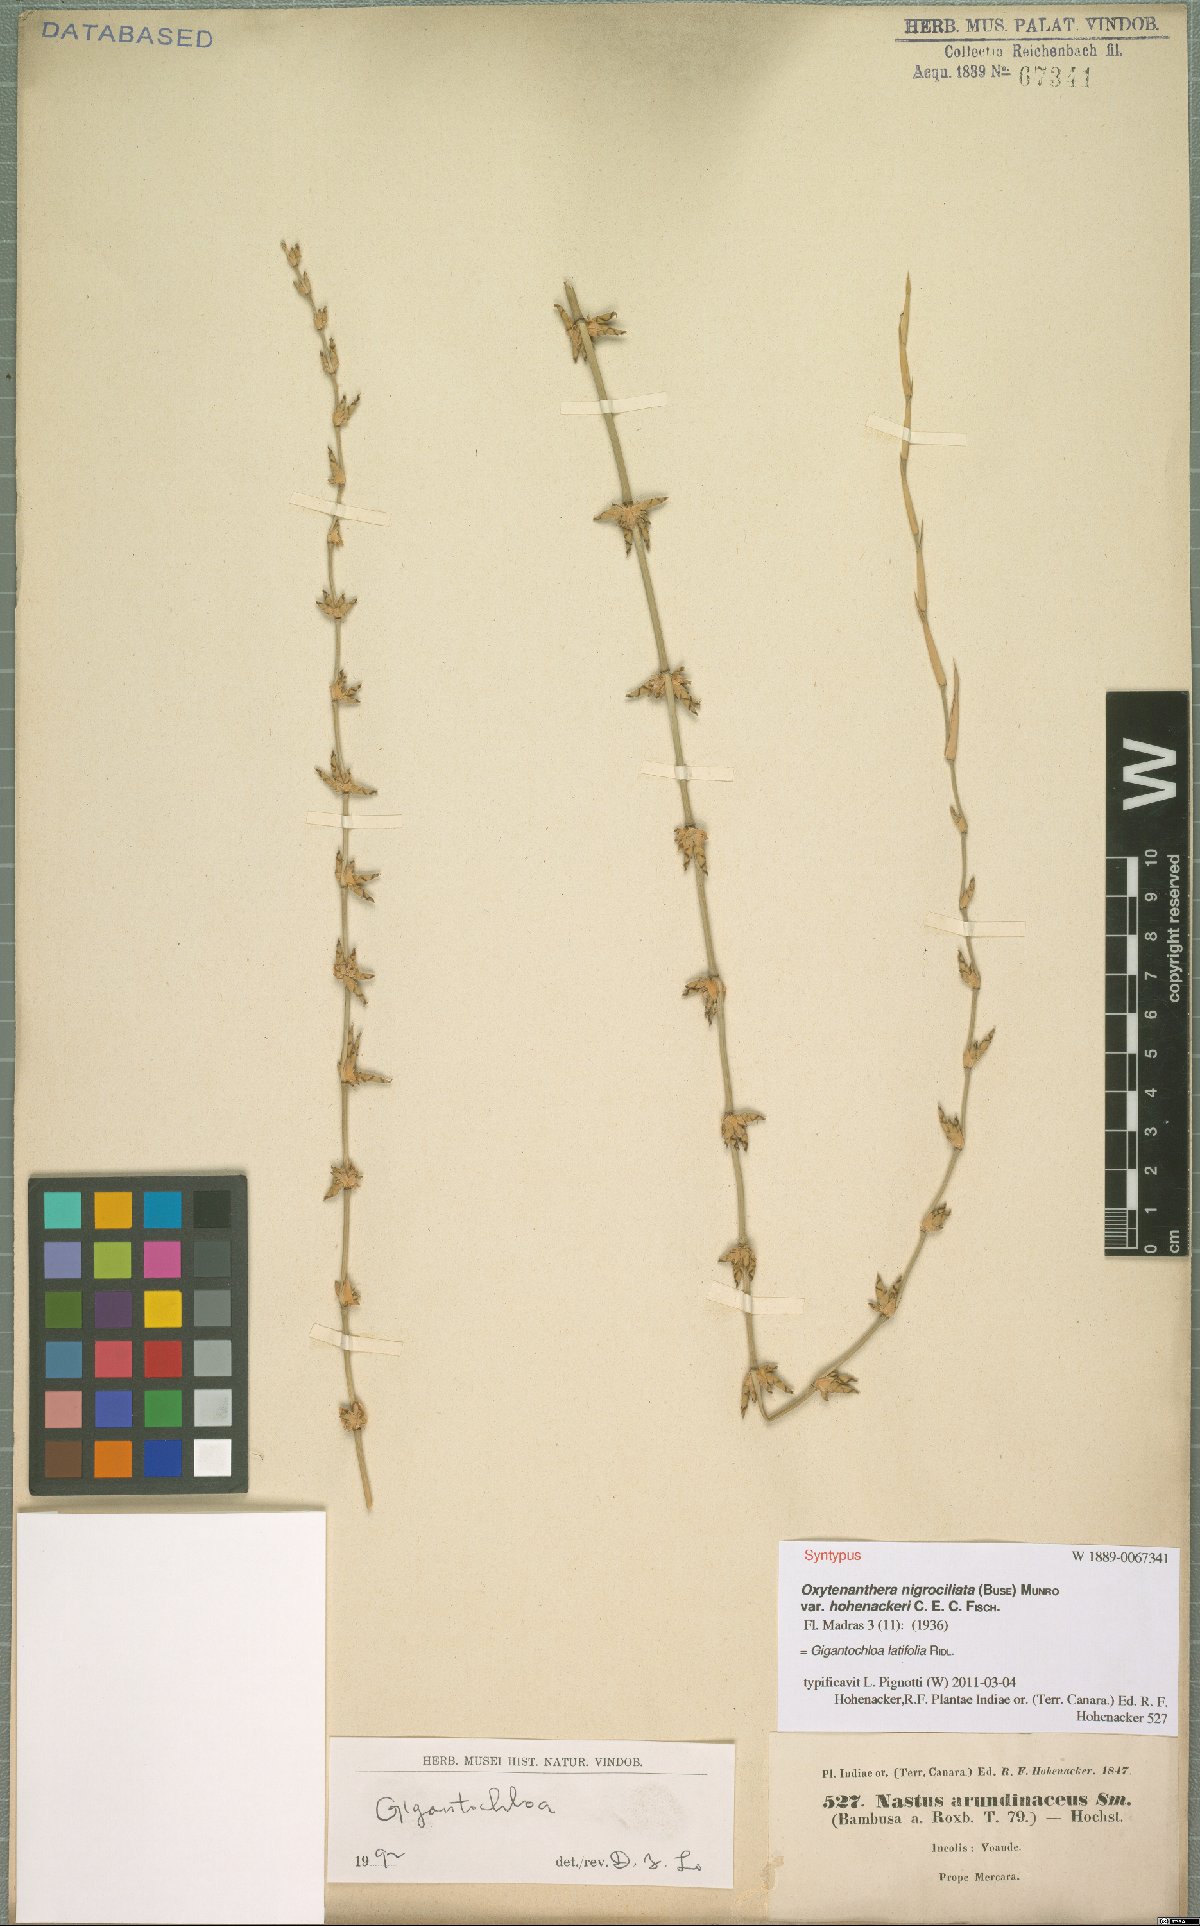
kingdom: Plantae
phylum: Tracheophyta
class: Liliopsida
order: Poales
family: Poaceae
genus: Gigantochloa
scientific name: Gigantochloa latifolia
